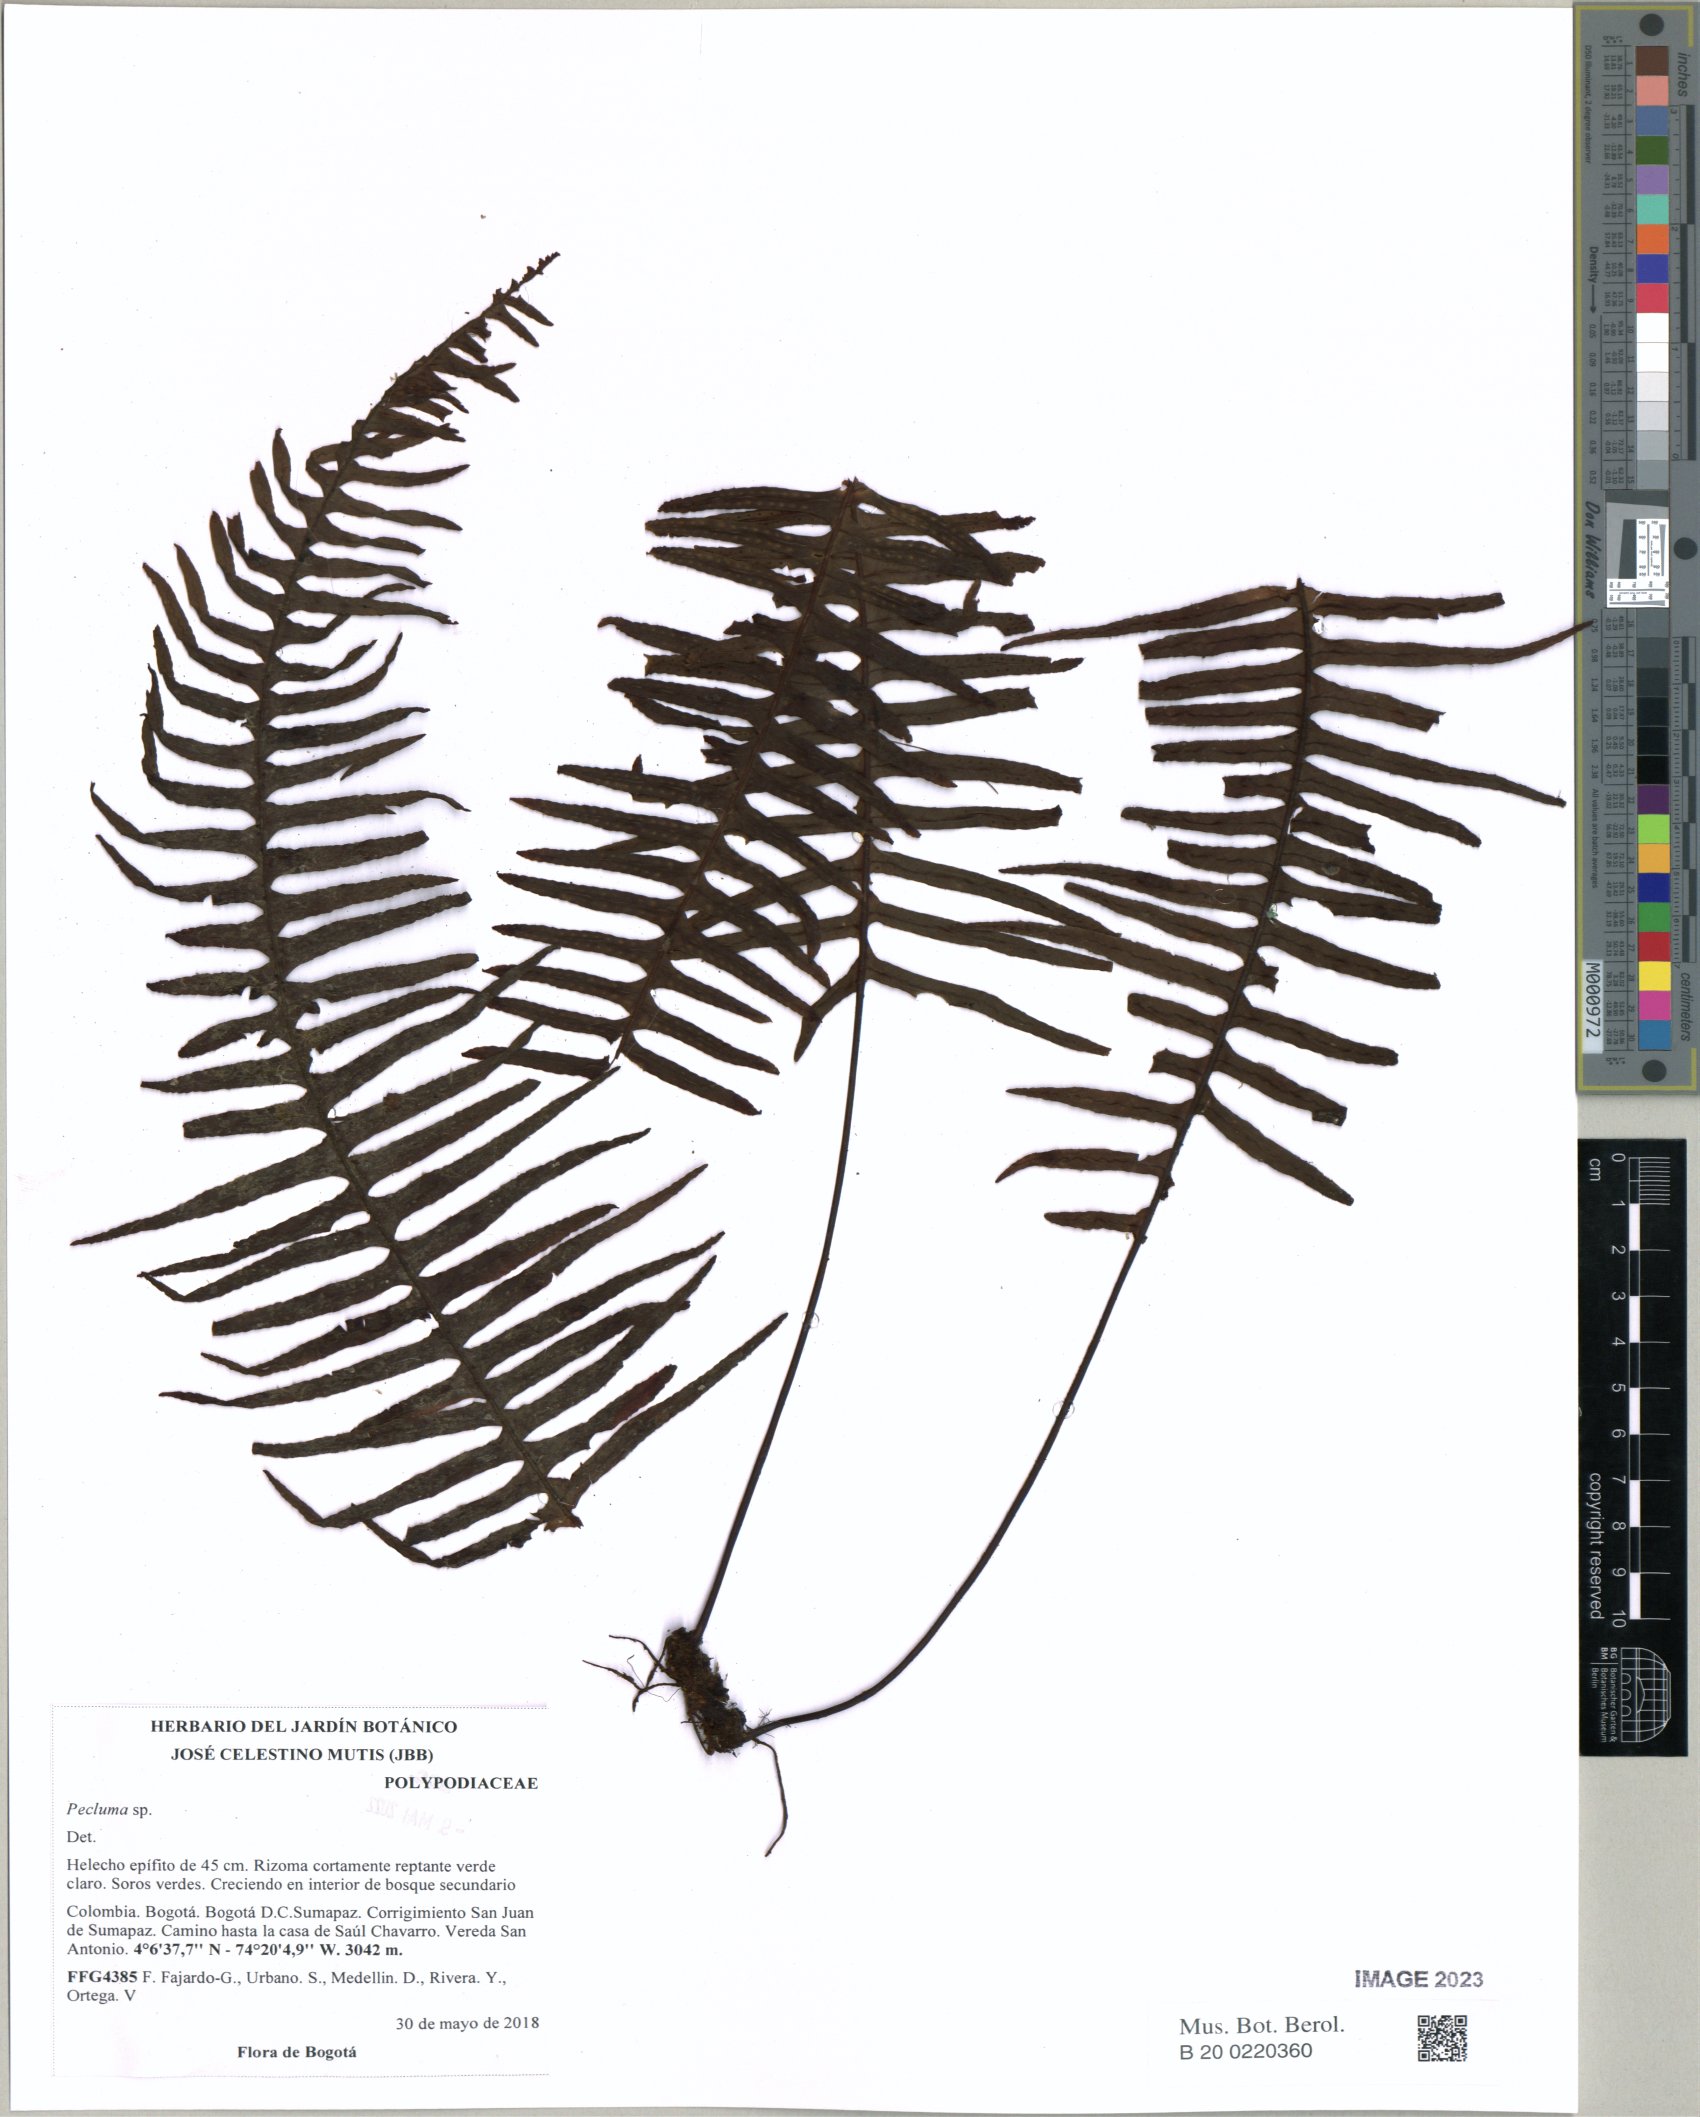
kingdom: Plantae
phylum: Tracheophyta
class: Polypodiopsida
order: Polypodiales
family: Polypodiaceae
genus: Pecluma
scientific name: Pecluma
